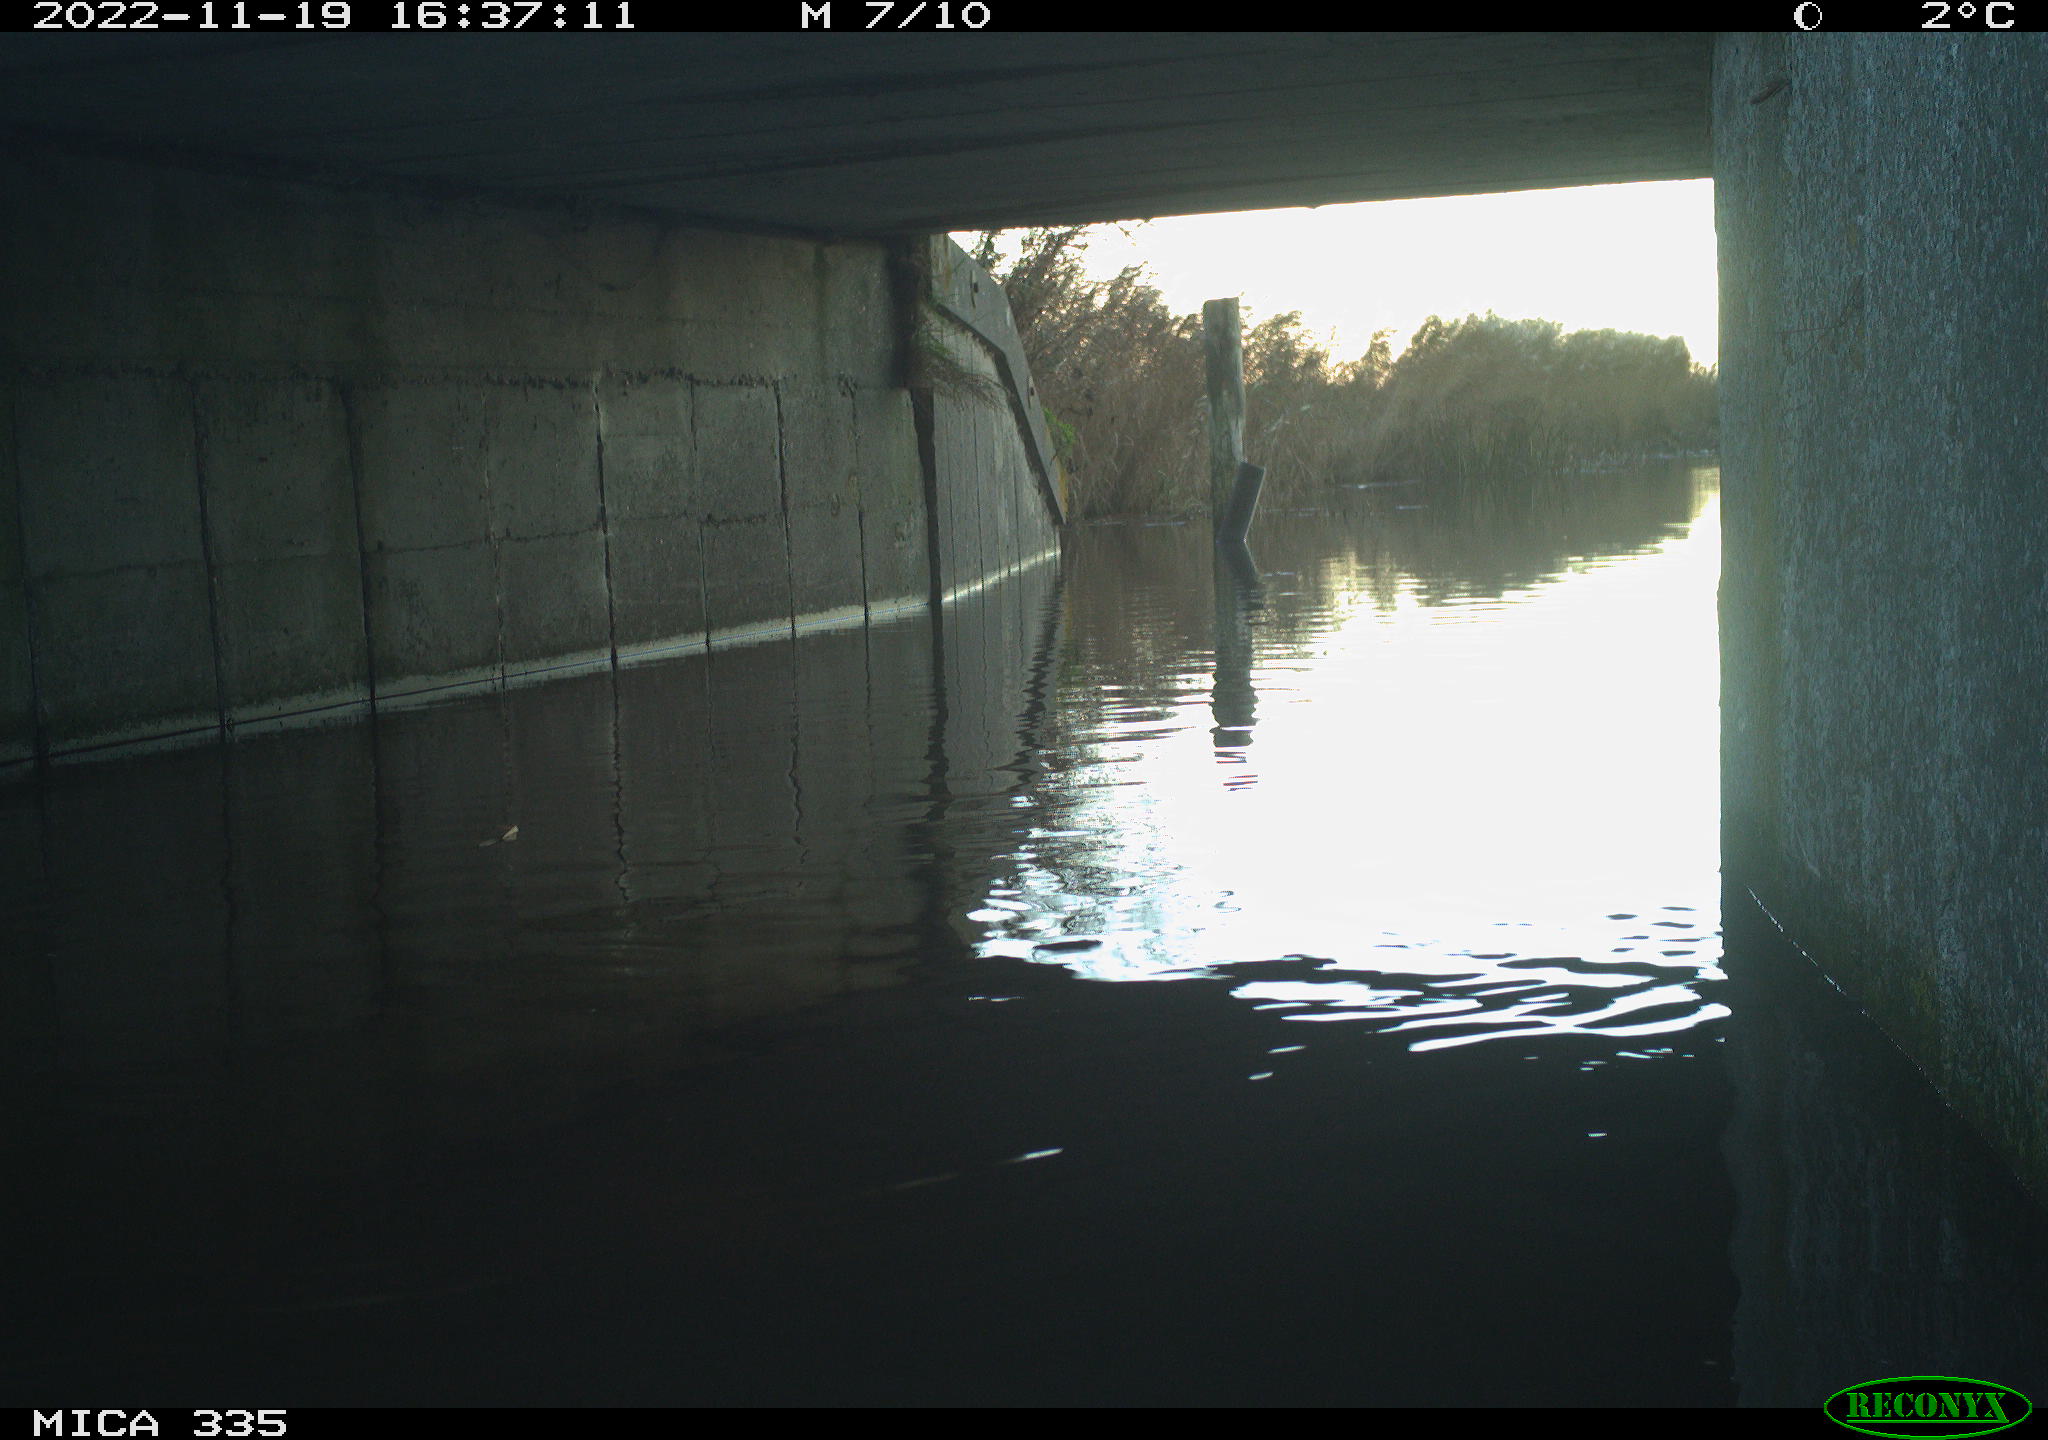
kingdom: Animalia
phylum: Chordata
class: Aves
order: Anseriformes
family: Anatidae
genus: Anas
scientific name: Anas
